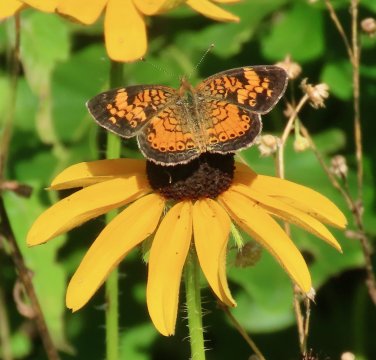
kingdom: Animalia
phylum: Arthropoda
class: Insecta
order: Lepidoptera
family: Nymphalidae
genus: Phyciodes
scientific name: Phyciodes tharos
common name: Pearl Crescent
